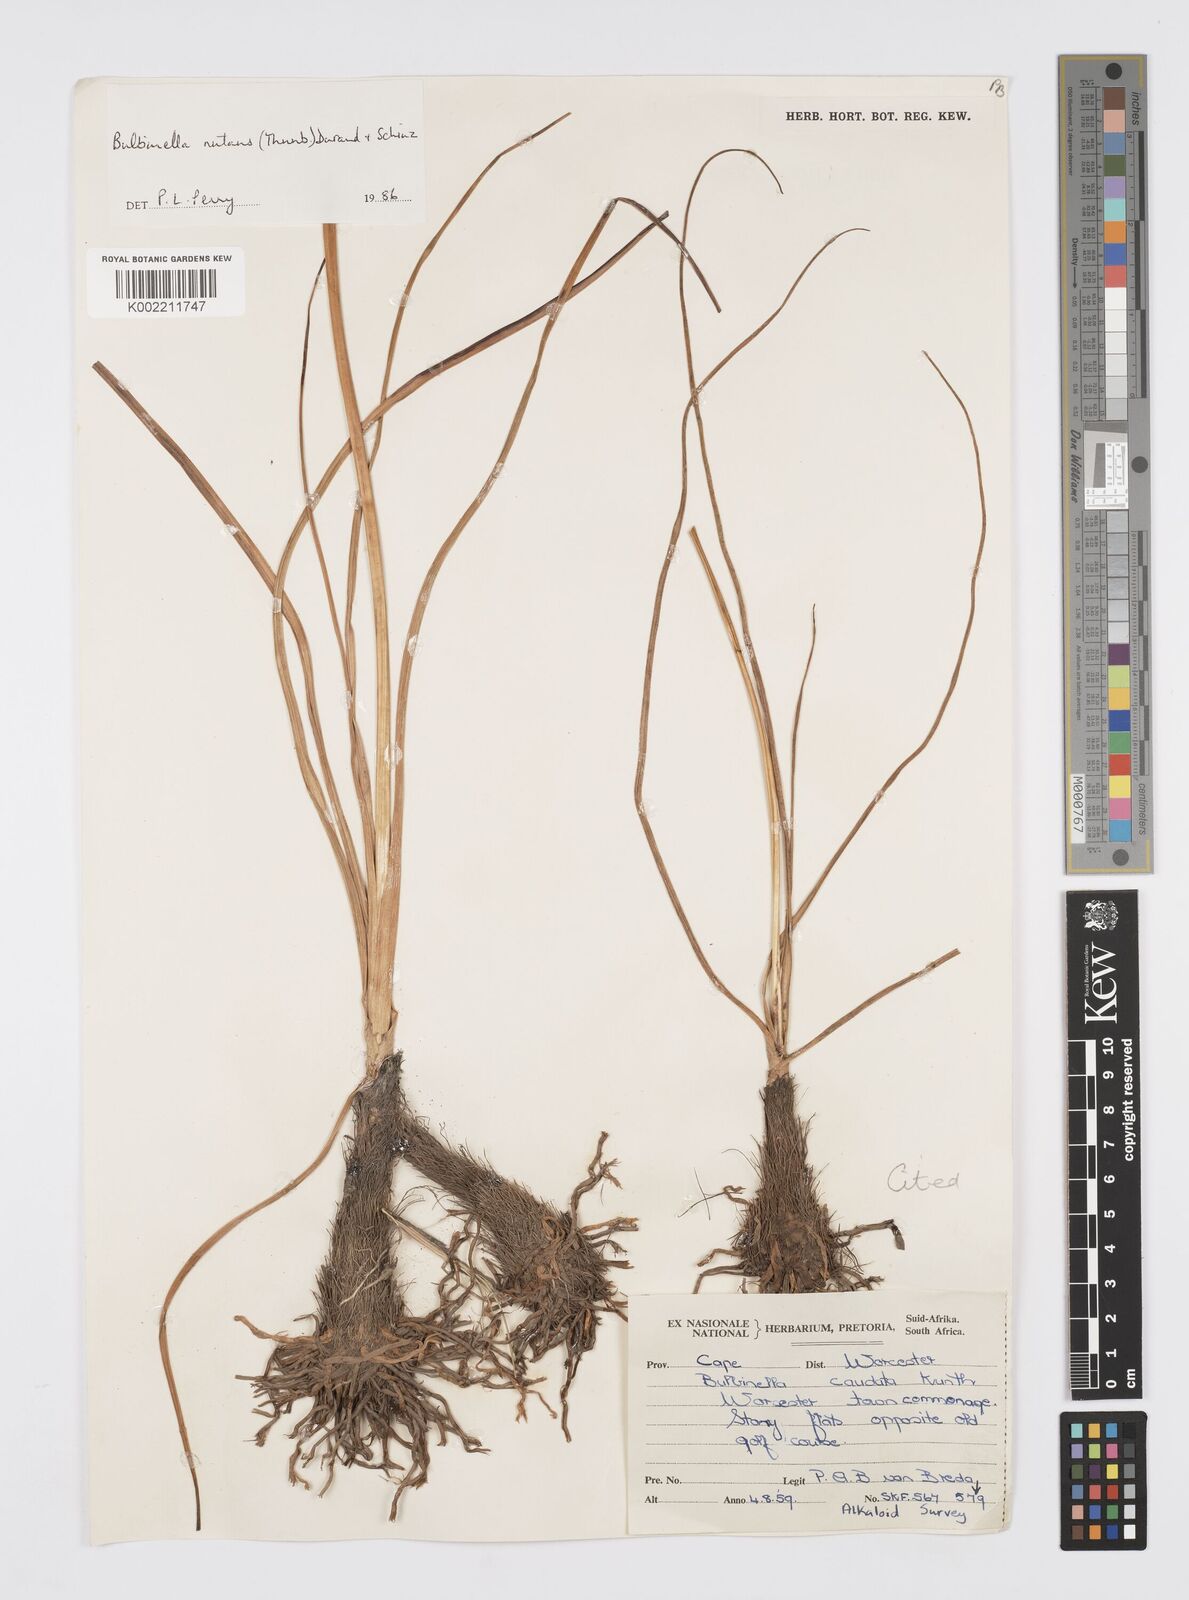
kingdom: Plantae
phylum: Tracheophyta
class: Liliopsida
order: Asparagales
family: Asphodelaceae
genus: Bulbinella
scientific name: Bulbinella nutans
